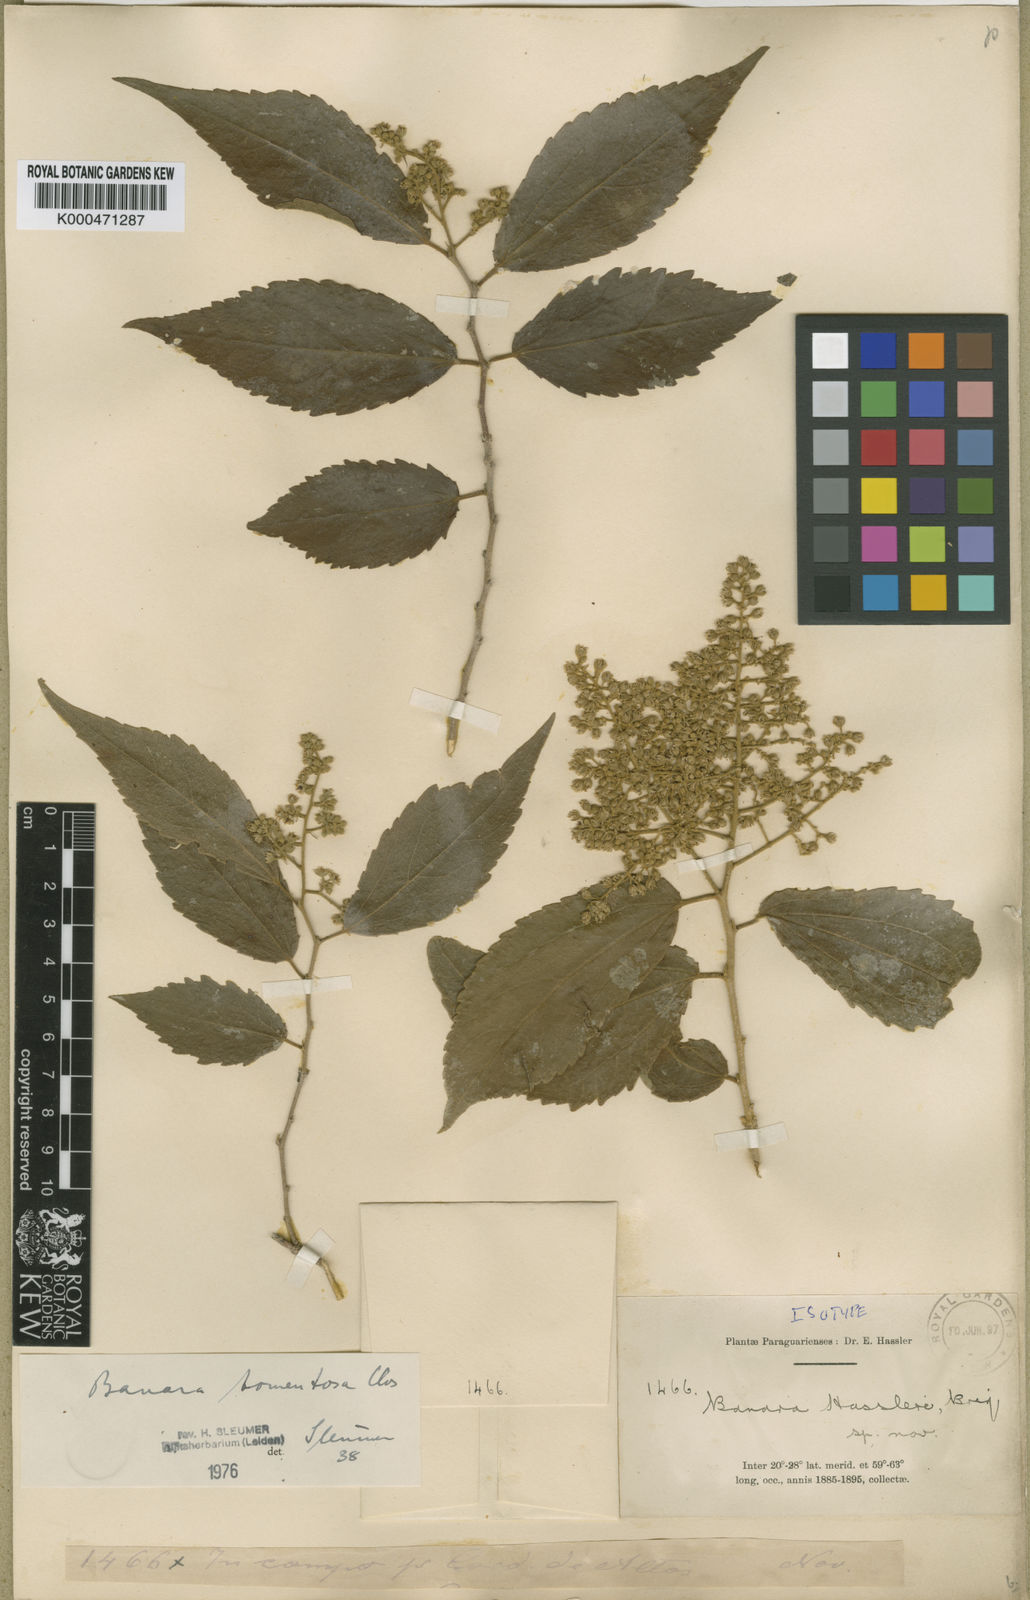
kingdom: Plantae
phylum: Tracheophyta
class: Magnoliopsida
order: Malpighiales
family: Salicaceae
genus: Banara
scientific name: Banara tomentosa
